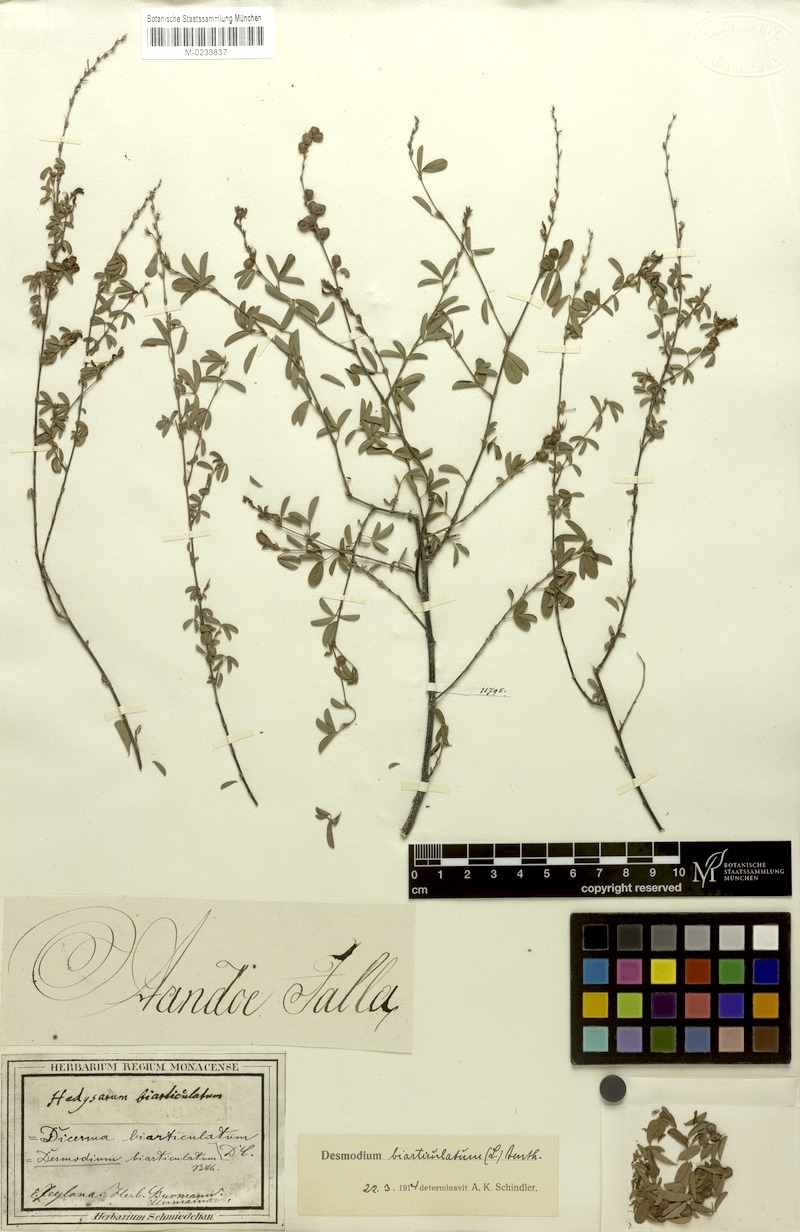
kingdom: Plantae
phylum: Tracheophyta
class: Magnoliopsida
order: Fabales
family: Fabaceae
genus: Aphyllodium
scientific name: Aphyllodium biarticulatum
